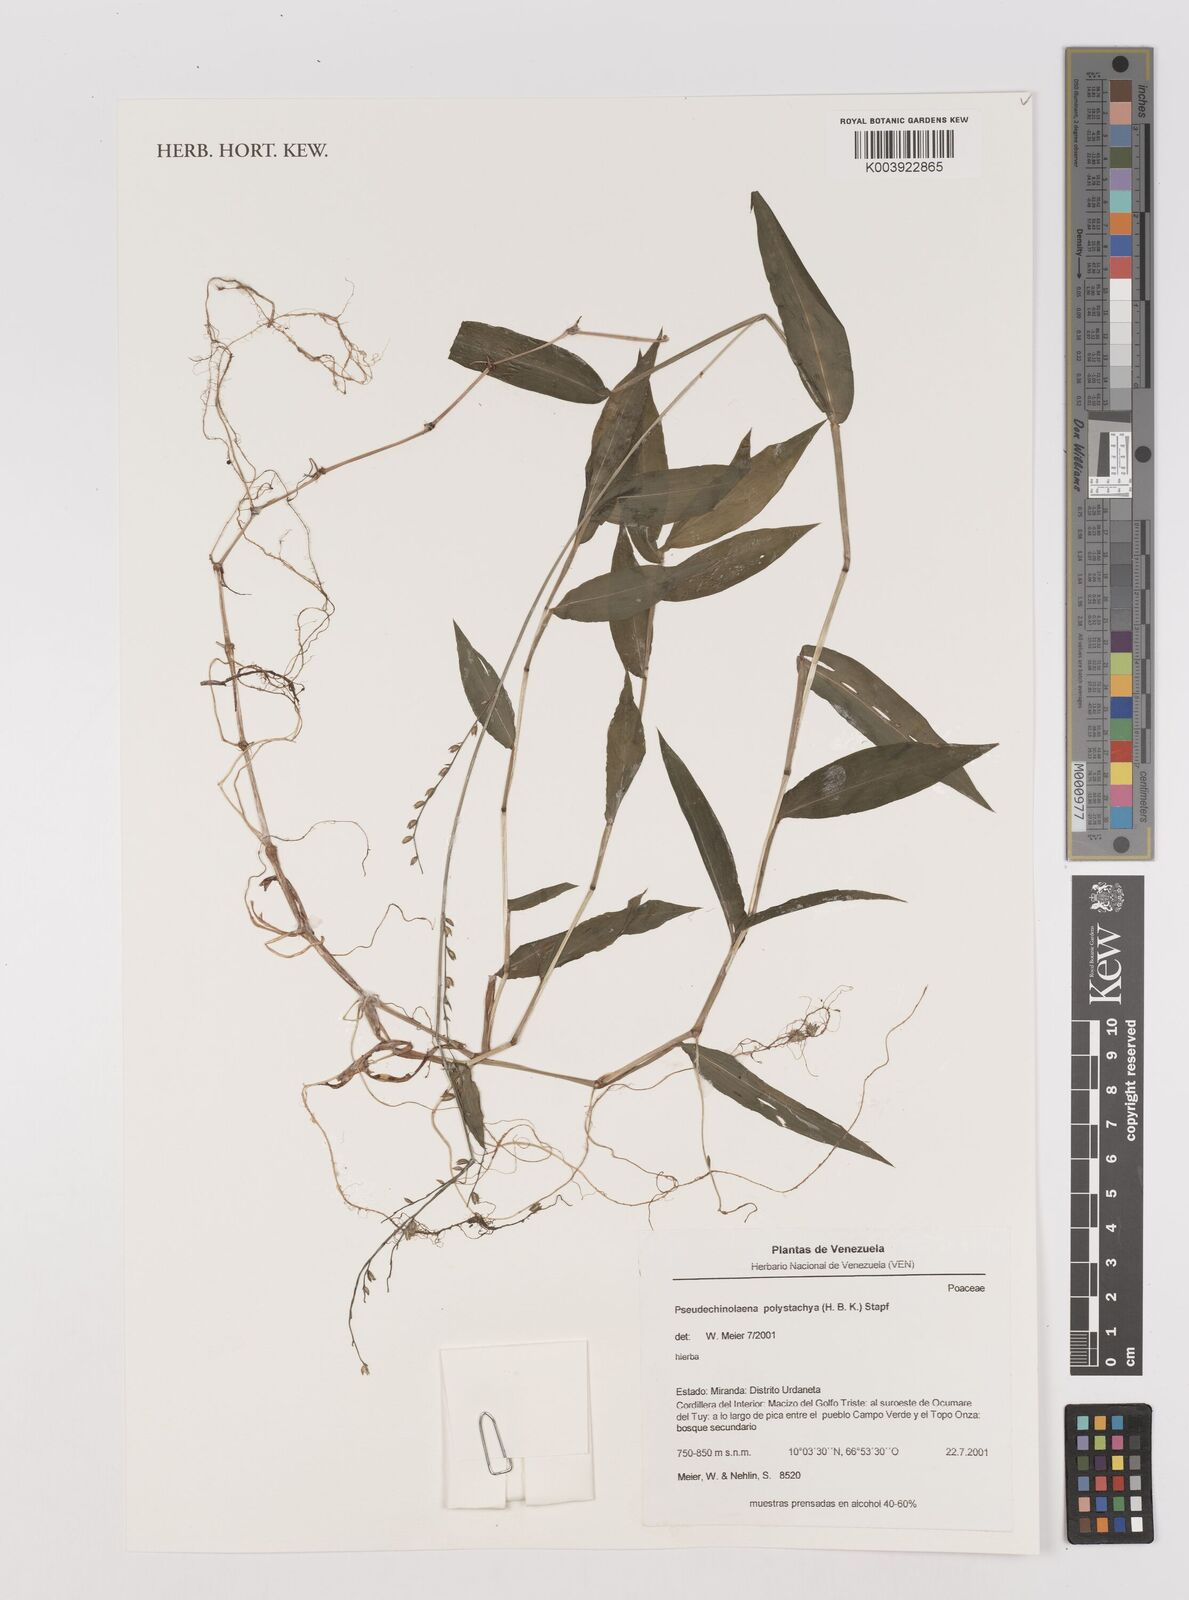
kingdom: Plantae
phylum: Tracheophyta
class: Liliopsida
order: Poales
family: Poaceae
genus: Pseudechinolaena
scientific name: Pseudechinolaena polystachya
